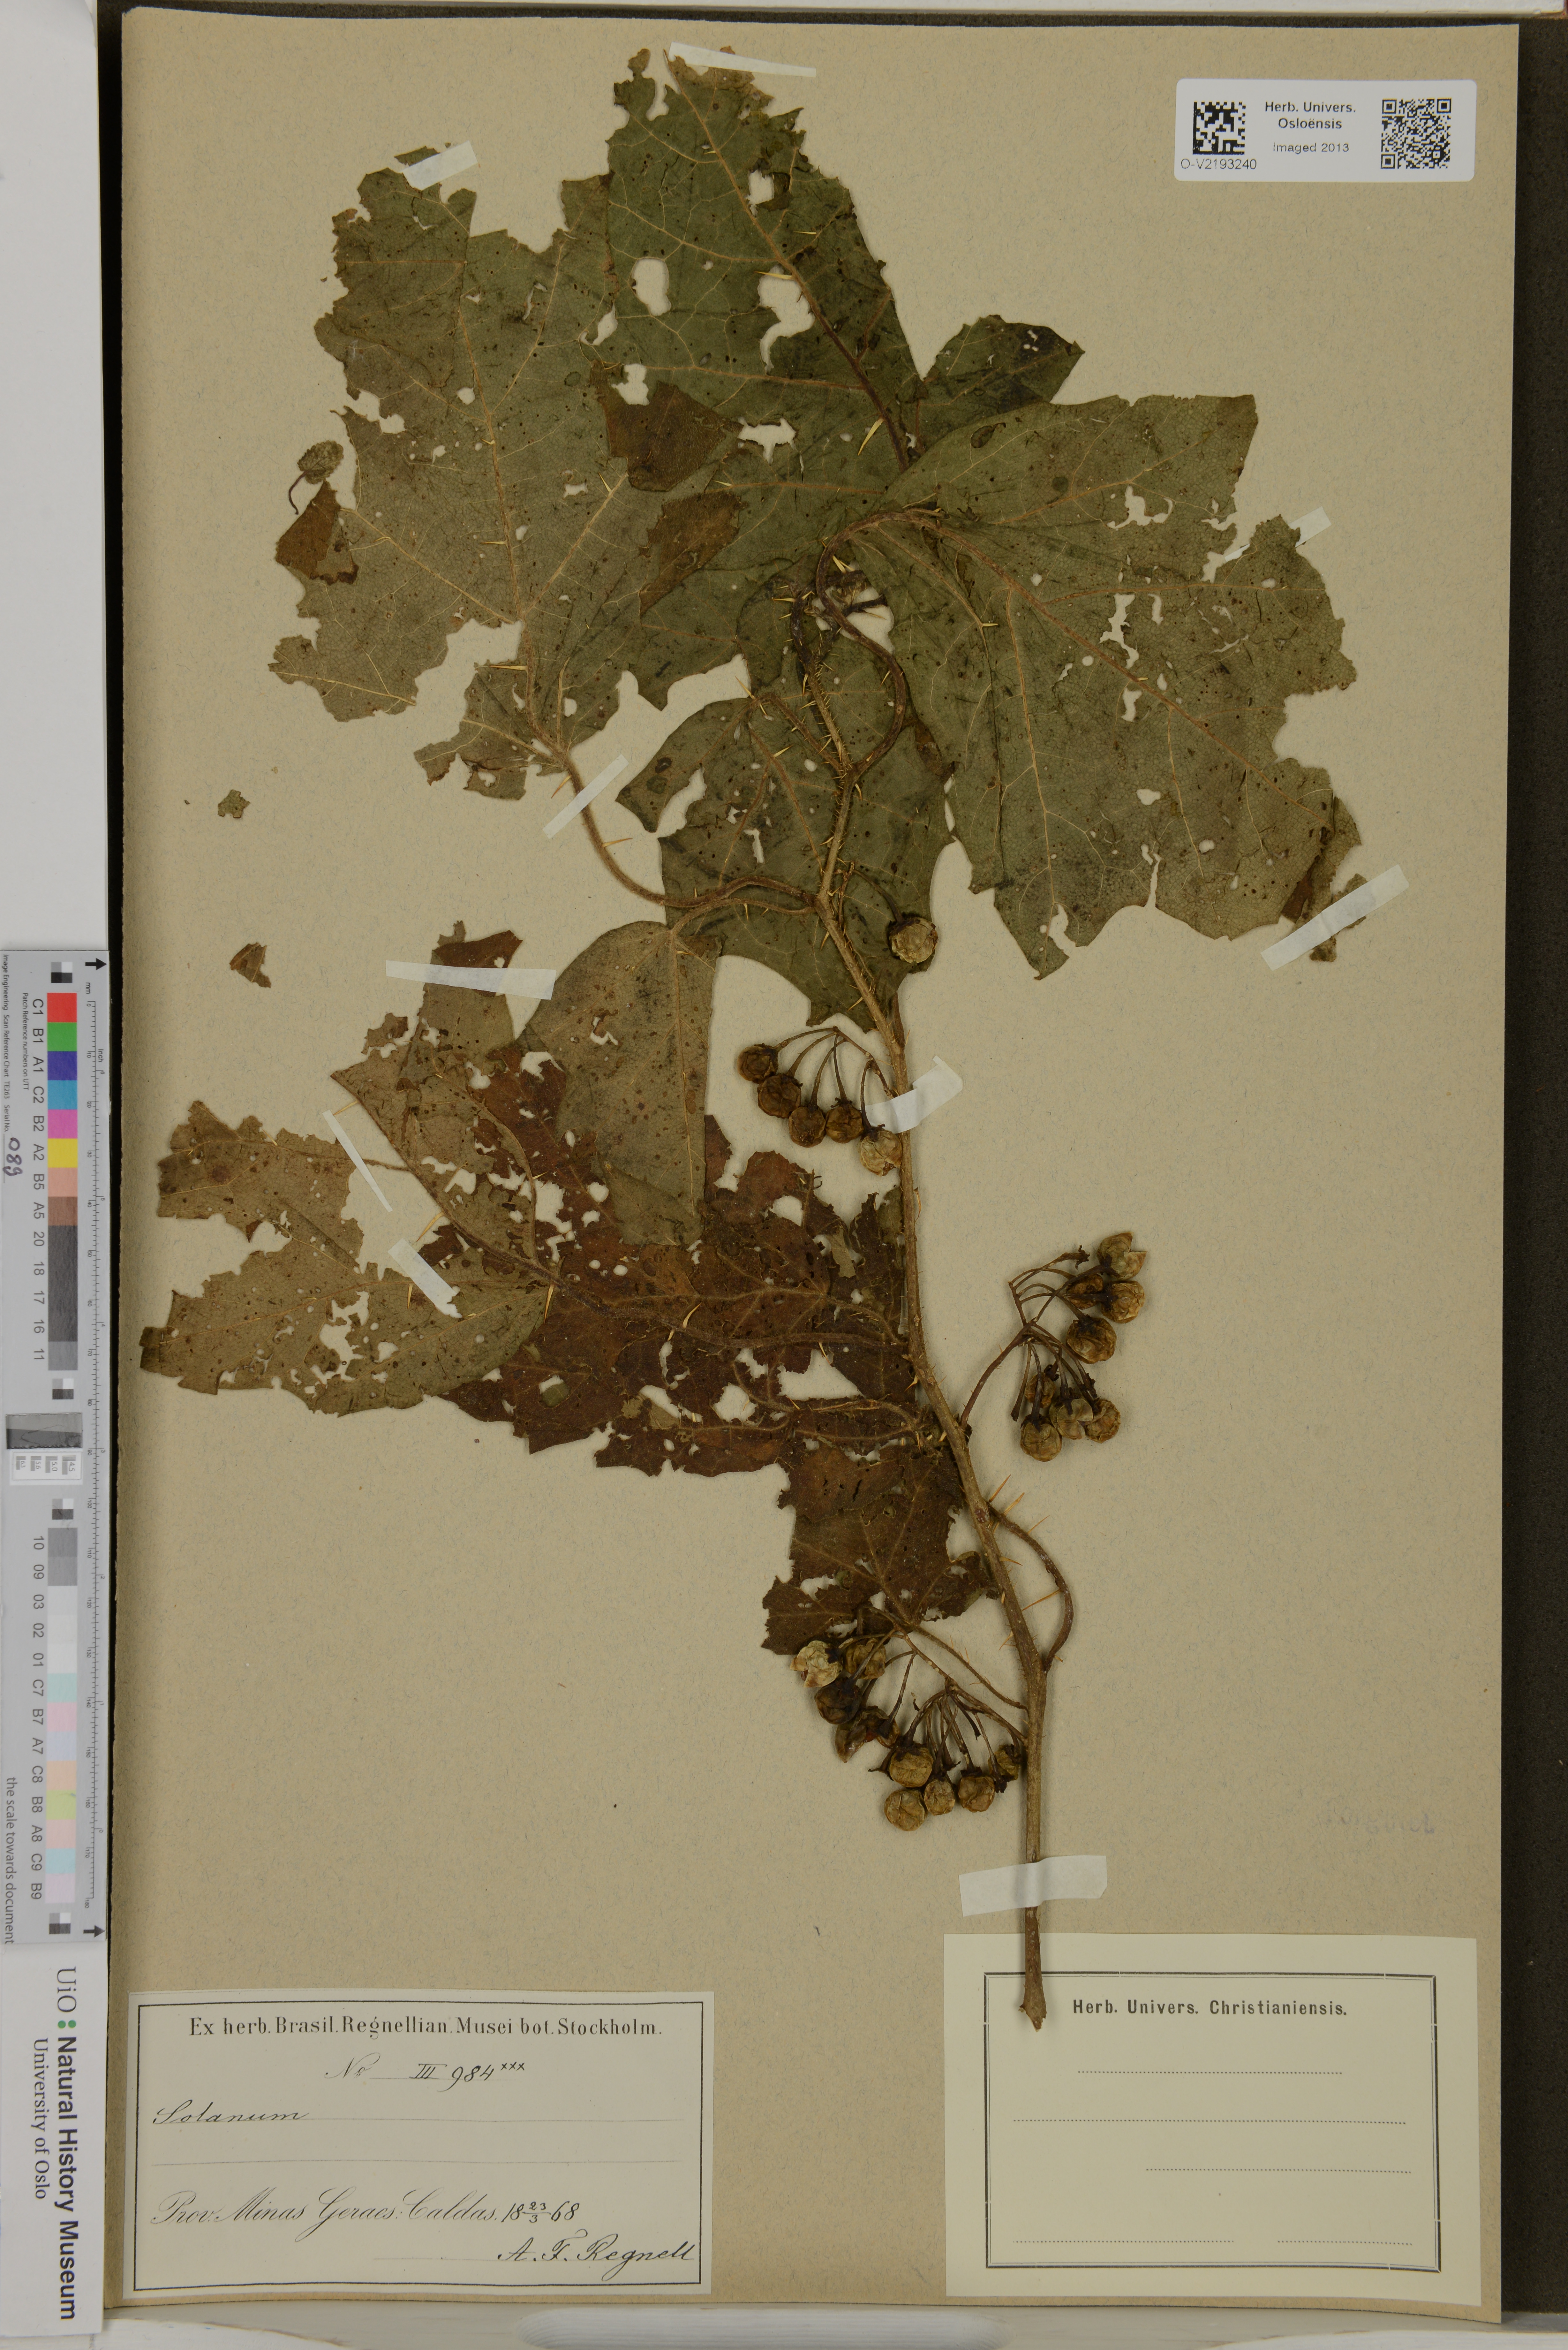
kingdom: Plantae
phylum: Tracheophyta
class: Magnoliopsida
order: Solanales
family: Solanaceae
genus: Solanum
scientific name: Solanum
